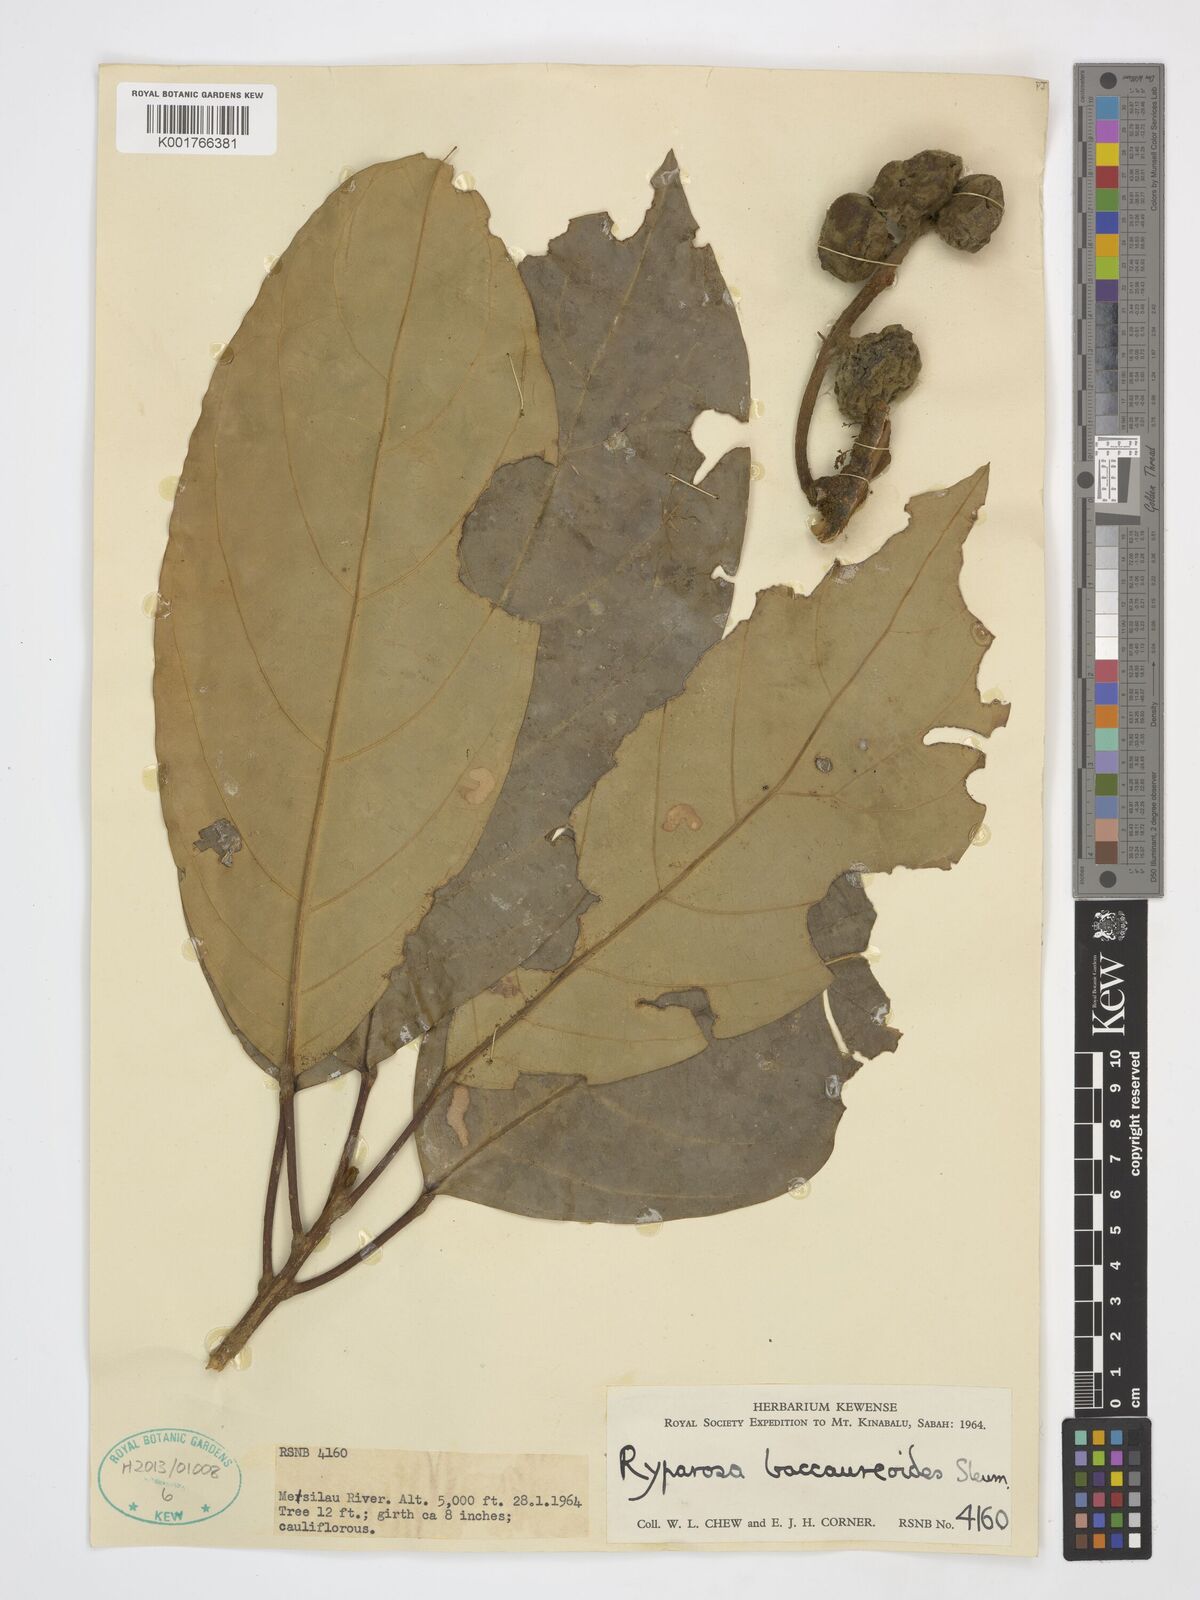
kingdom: Plantae
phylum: Tracheophyta
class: Magnoliopsida
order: Malpighiales
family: Achariaceae
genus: Ryparosa
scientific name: Ryparosa baccaureoides
